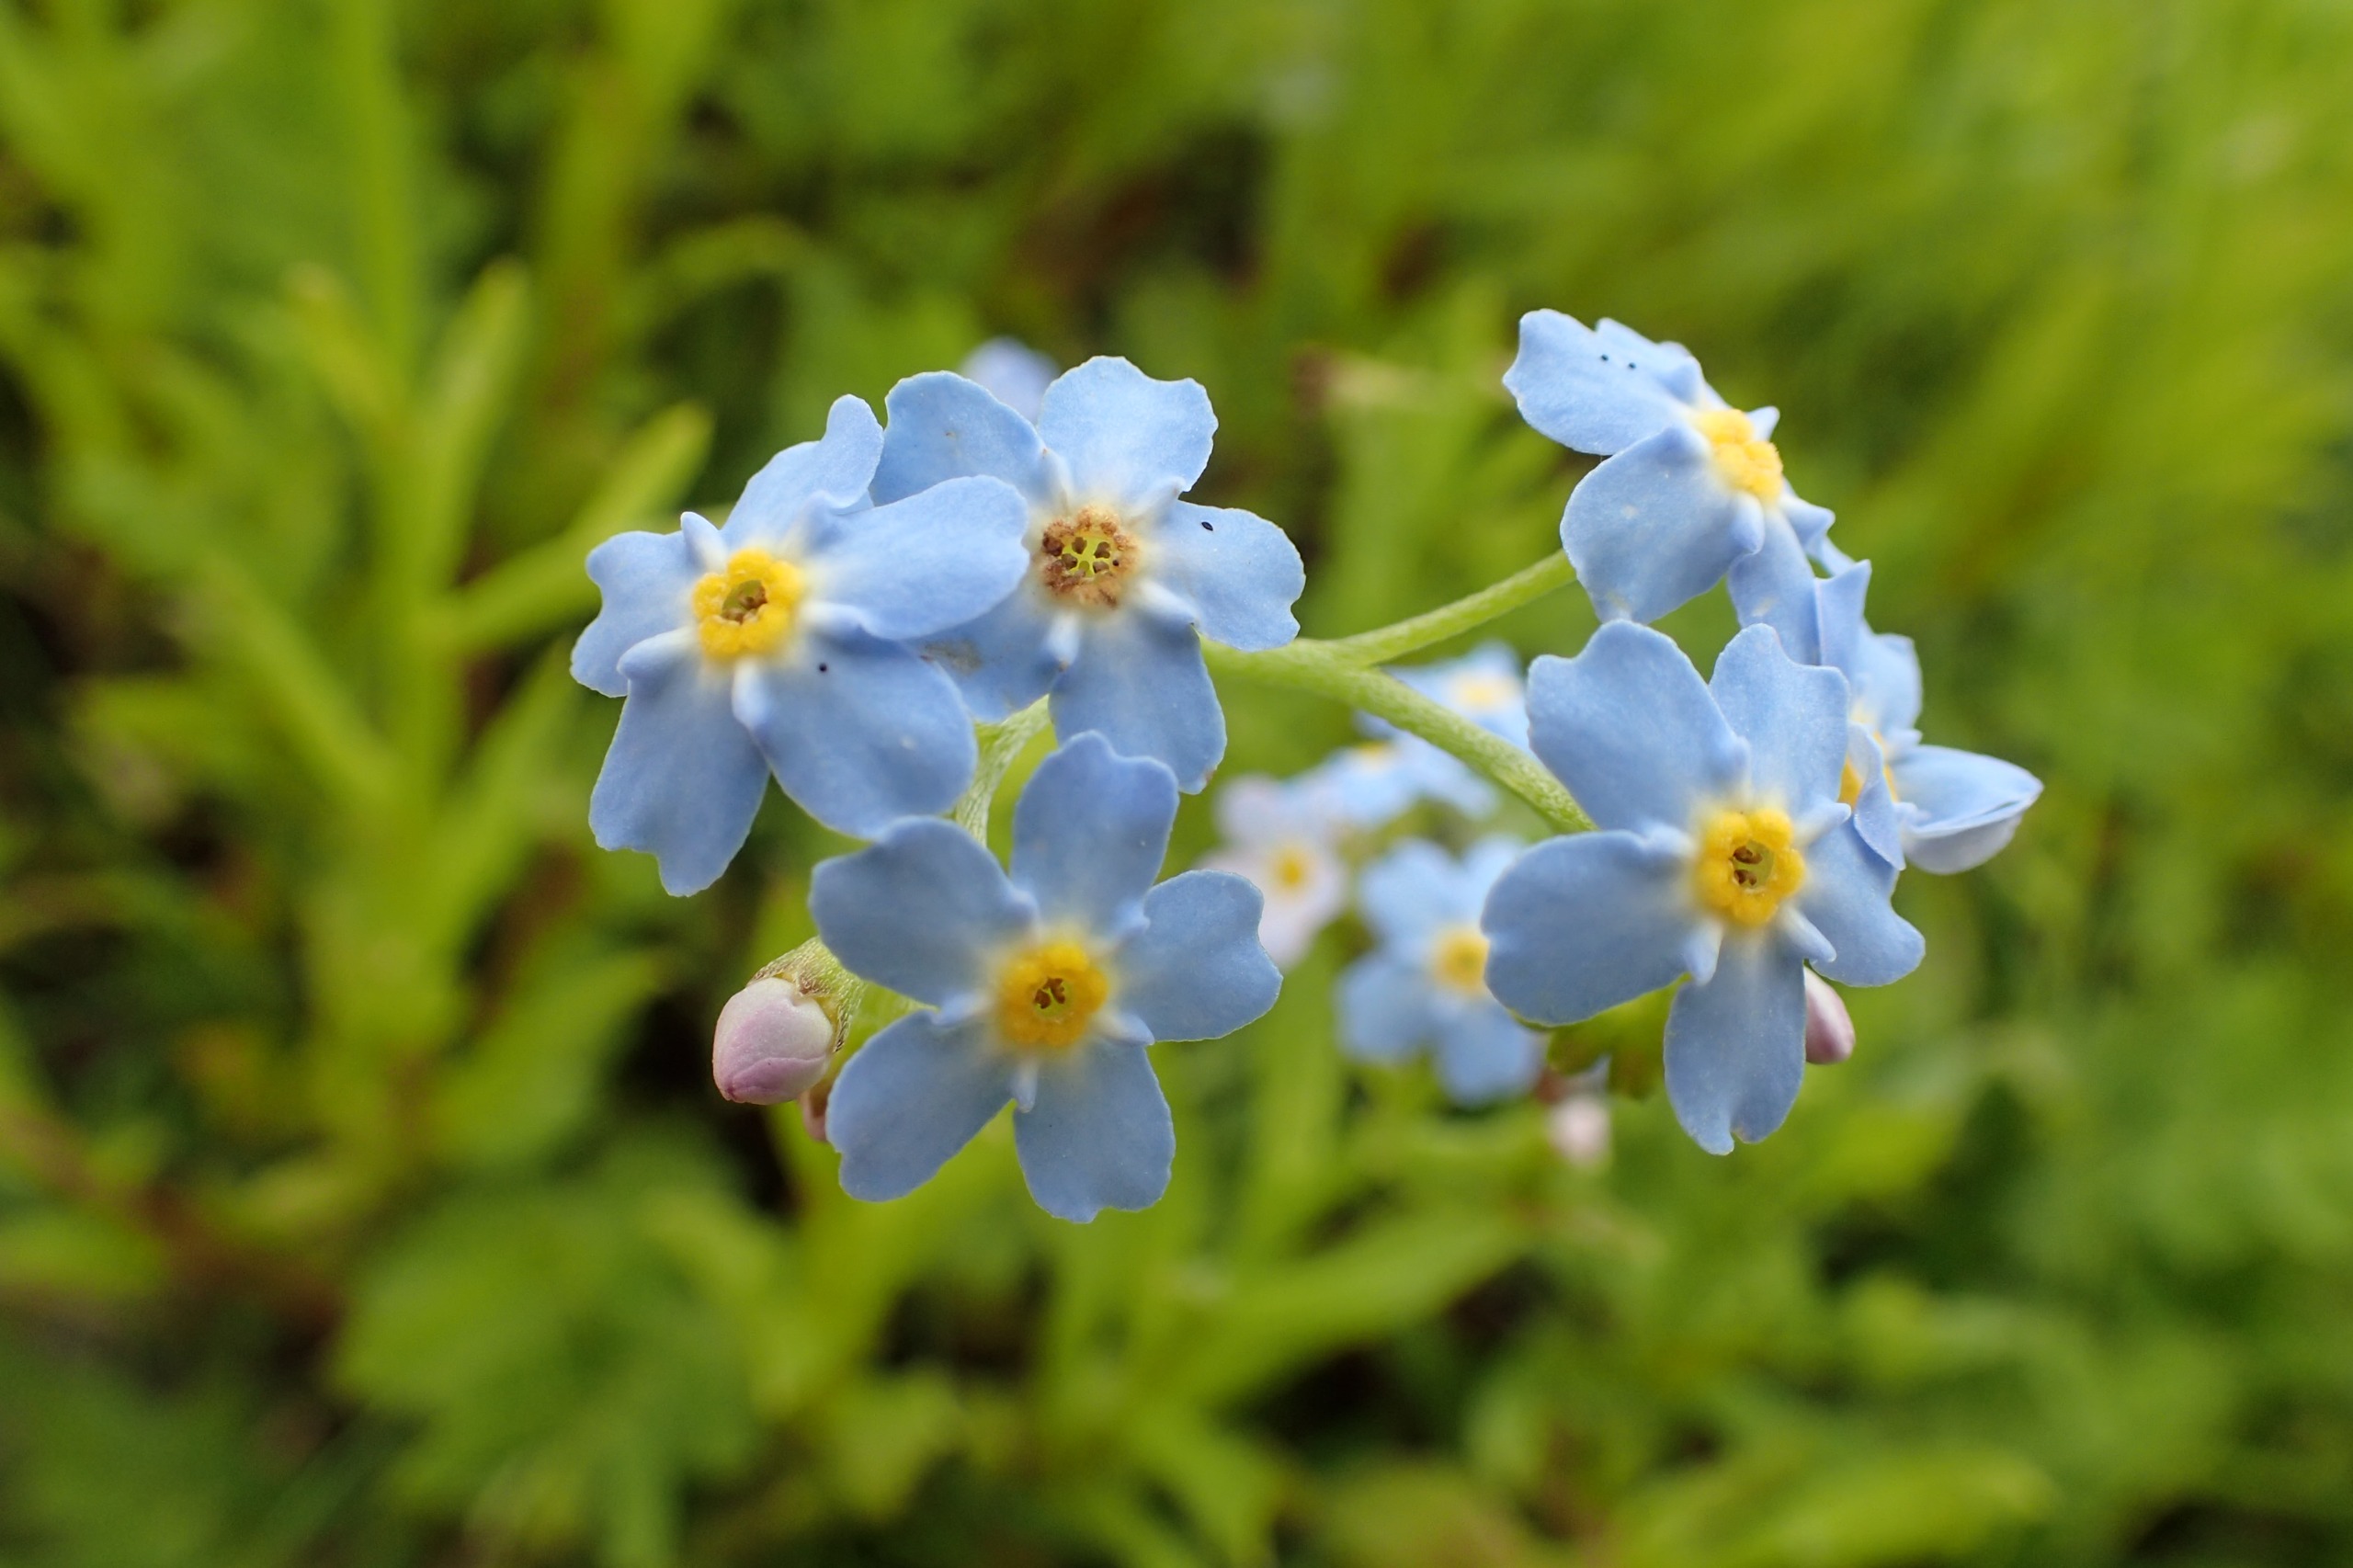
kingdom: Plantae
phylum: Tracheophyta
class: Magnoliopsida
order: Boraginales
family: Boraginaceae
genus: Myosotis
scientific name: Myosotis scorpioides
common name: Eng-forglemmigej
